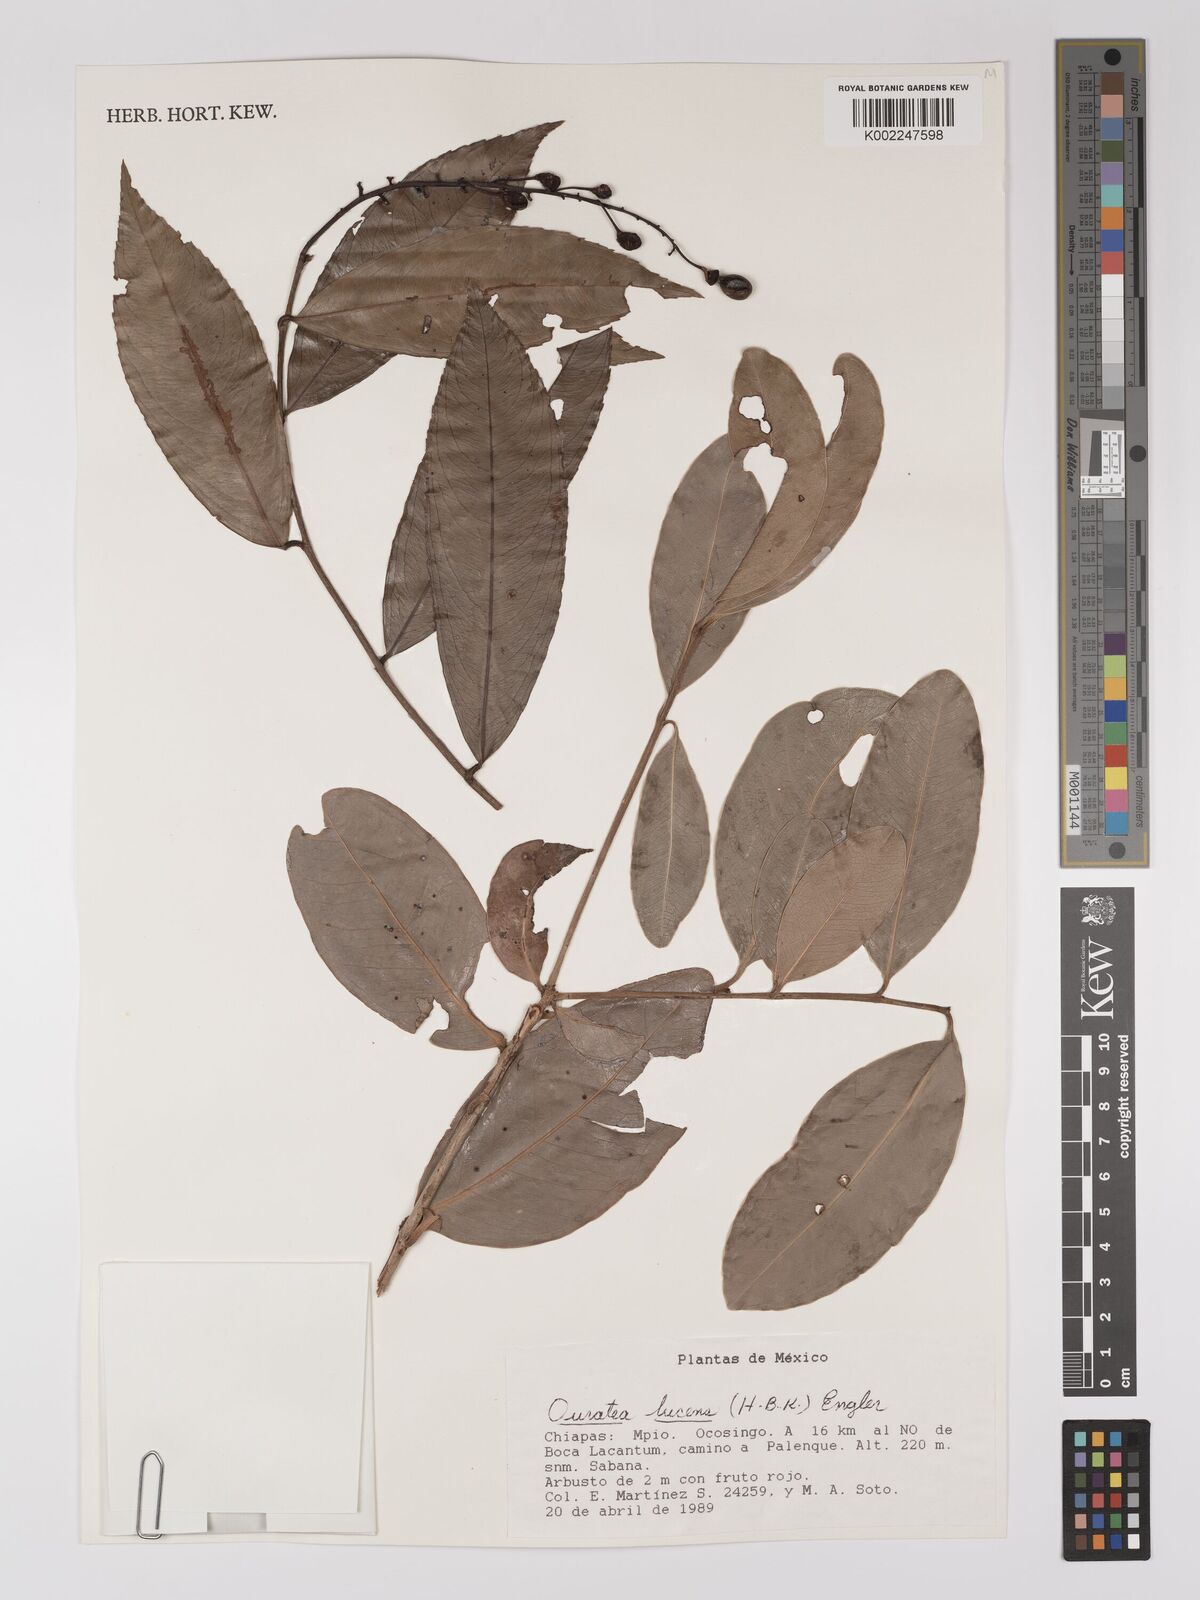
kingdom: Plantae
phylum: Tracheophyta
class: Magnoliopsida
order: Malpighiales
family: Ochnaceae
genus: Ouratea
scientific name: Ouratea lucens
